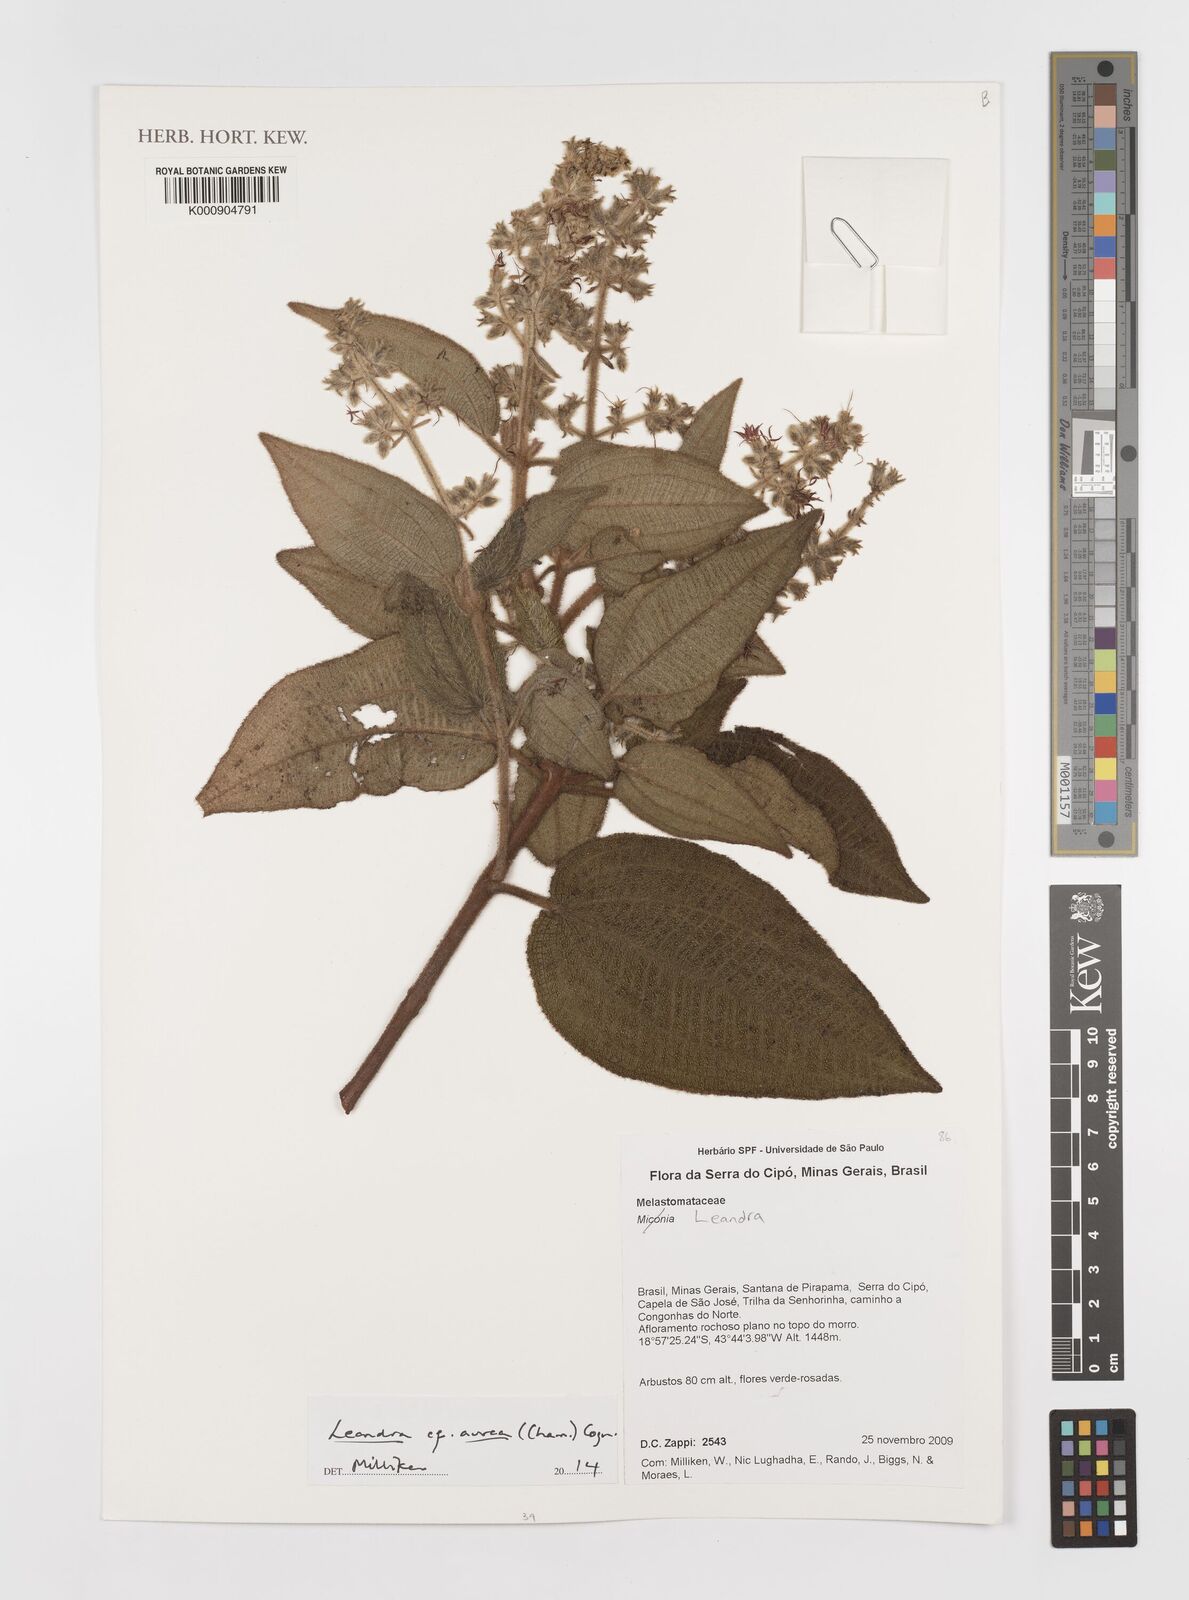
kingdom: Plantae
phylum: Tracheophyta
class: Magnoliopsida
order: Myrtales
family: Melastomataceae
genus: Miconia
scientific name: Miconia auricoma
